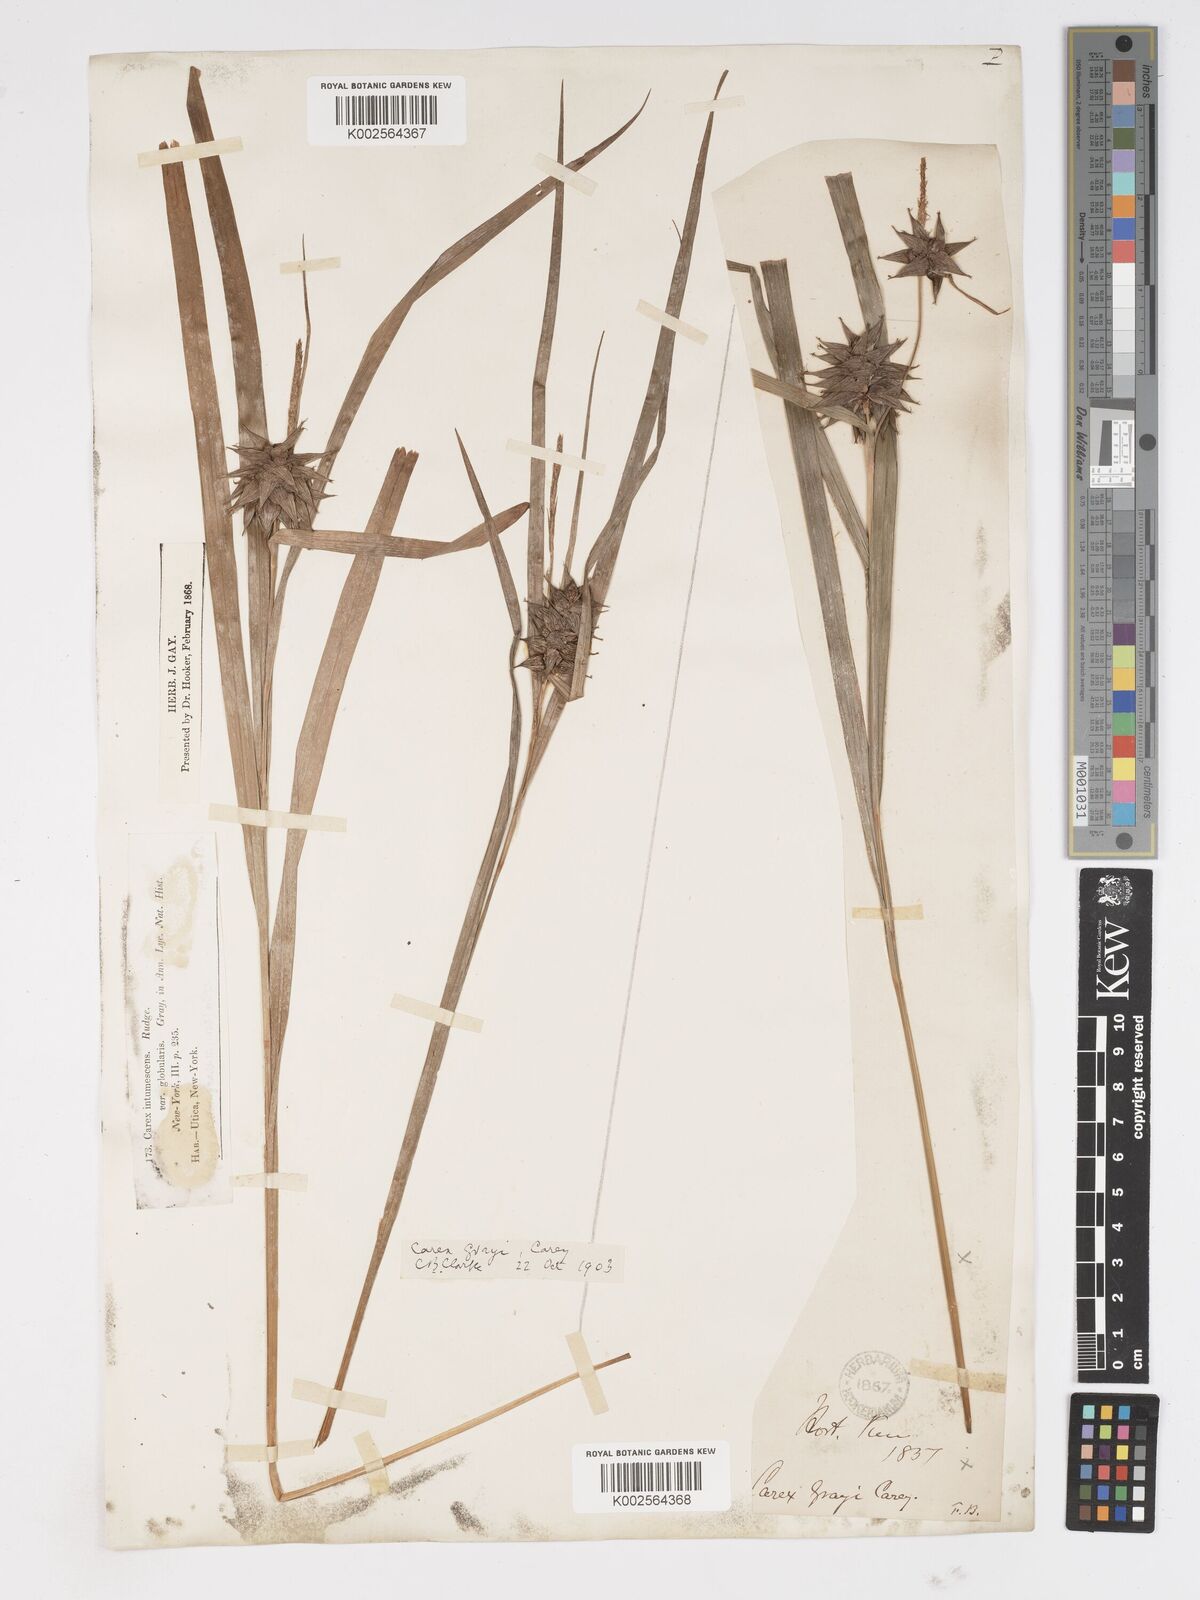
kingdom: Plantae
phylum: Tracheophyta
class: Liliopsida
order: Poales
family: Cyperaceae
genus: Carex
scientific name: Carex grayi
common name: Asa gray's sedge
